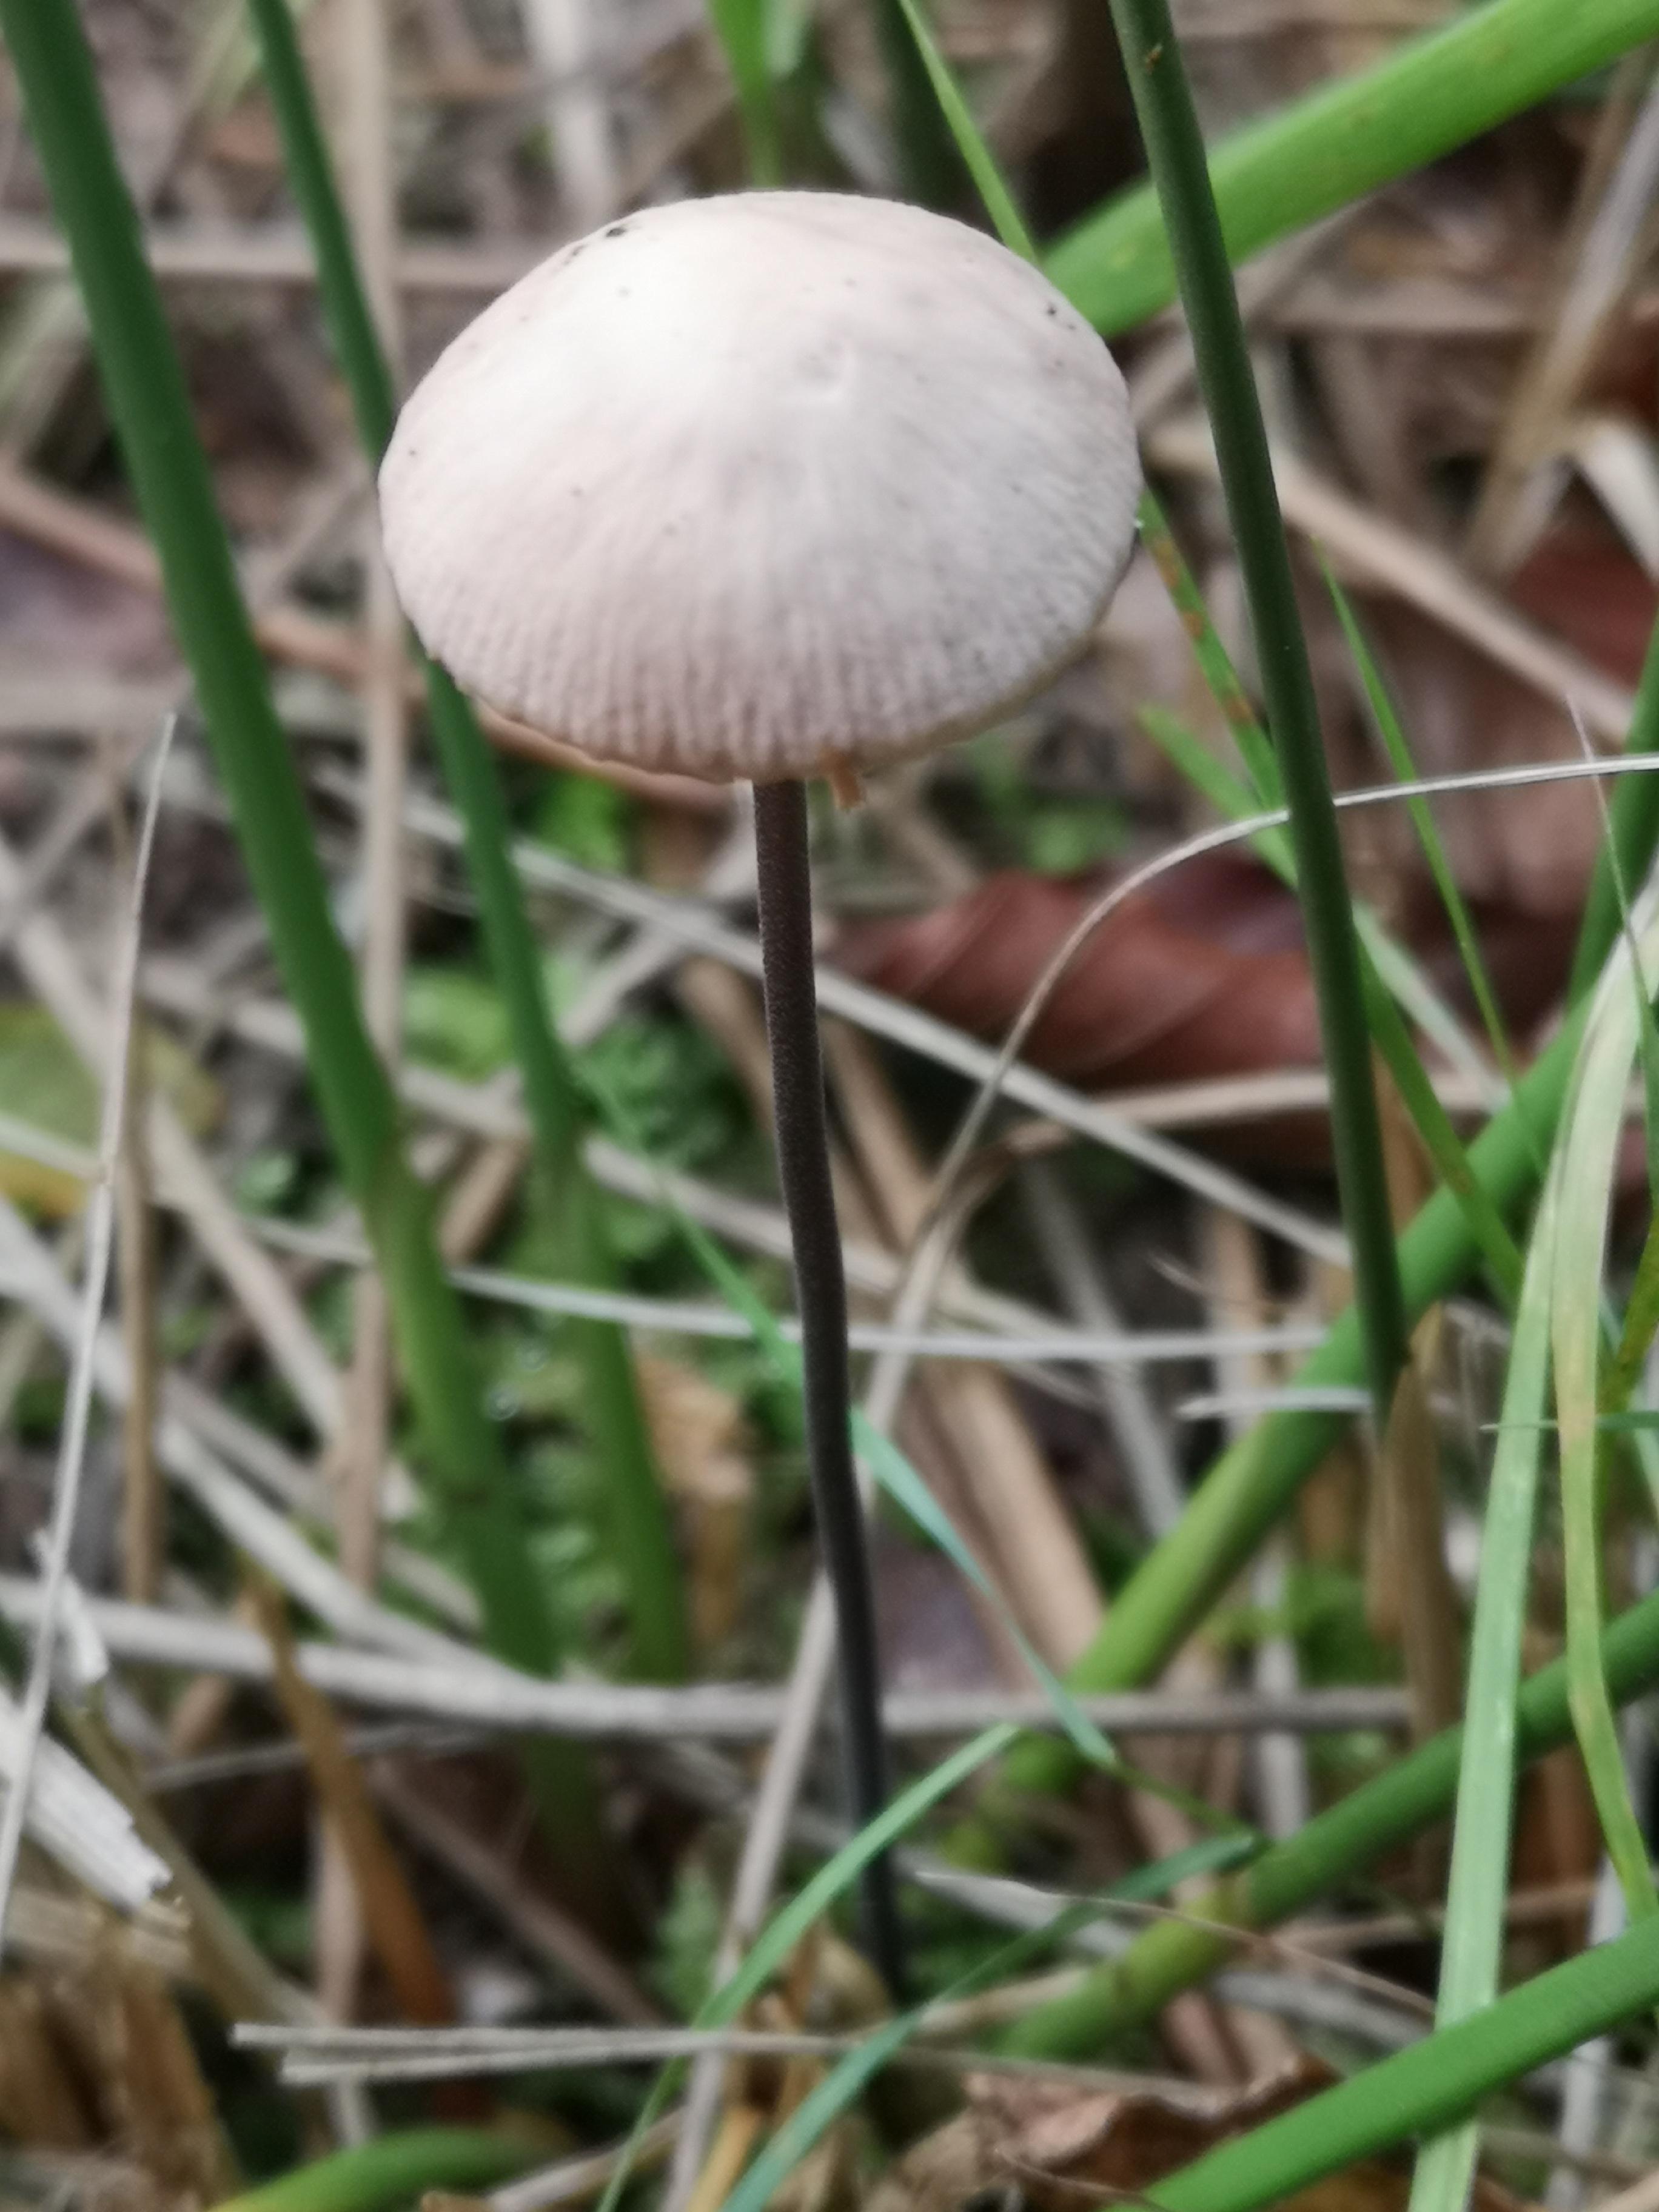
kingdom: Fungi
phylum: Basidiomycota
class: Agaricomycetes
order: Agaricales
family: Omphalotaceae
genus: Mycetinis
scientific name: Mycetinis alliaceus
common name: stor løghat
